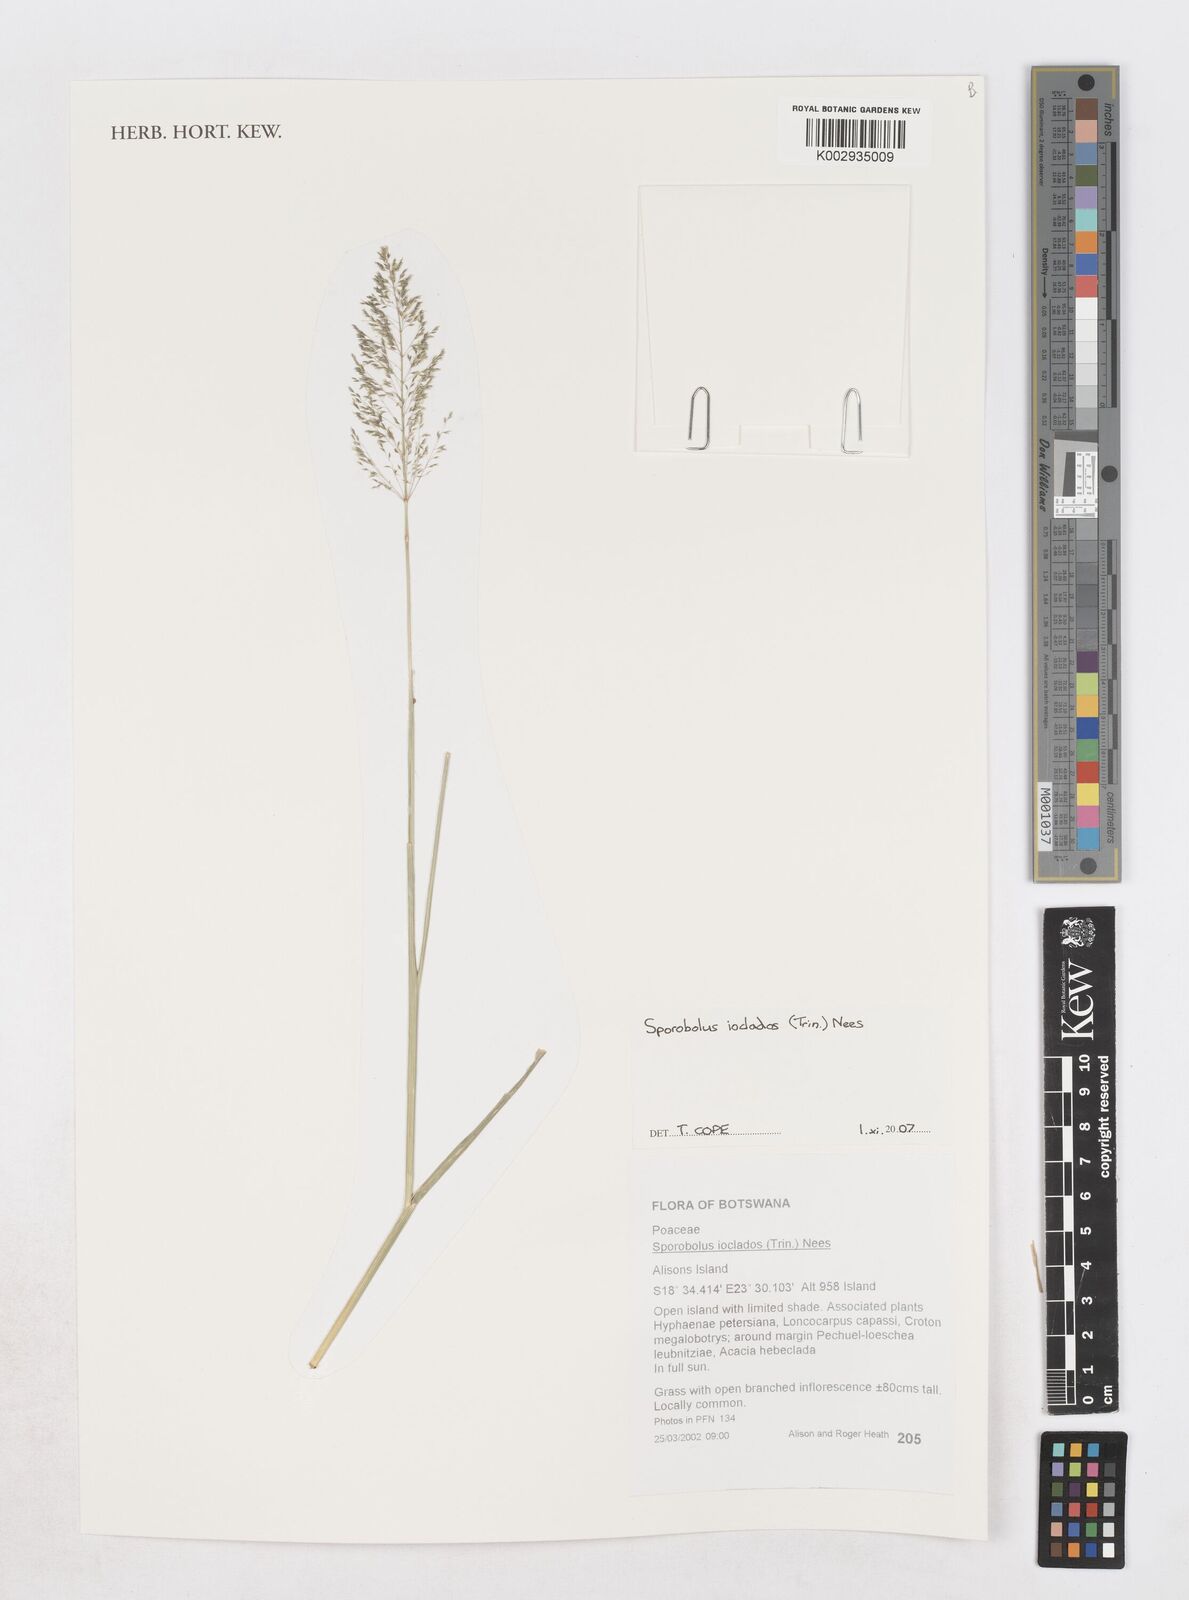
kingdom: Plantae
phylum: Tracheophyta
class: Liliopsida
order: Poales
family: Poaceae
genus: Sporobolus
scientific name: Sporobolus ioclados
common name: Pan dropseed
